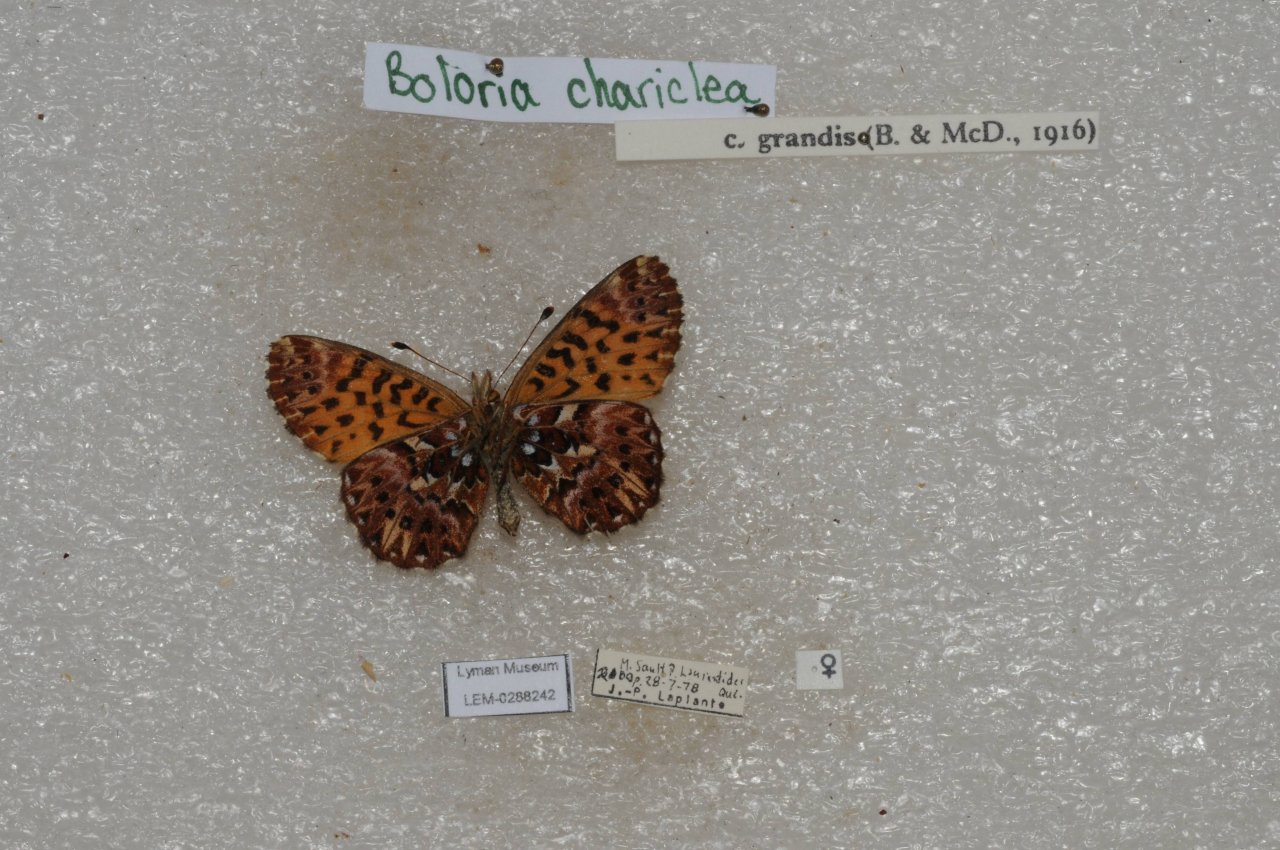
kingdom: Animalia
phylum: Arthropoda
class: Insecta
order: Lepidoptera
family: Nymphalidae
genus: Boloria
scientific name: Boloria chariclea
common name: Arctic Fritillary
